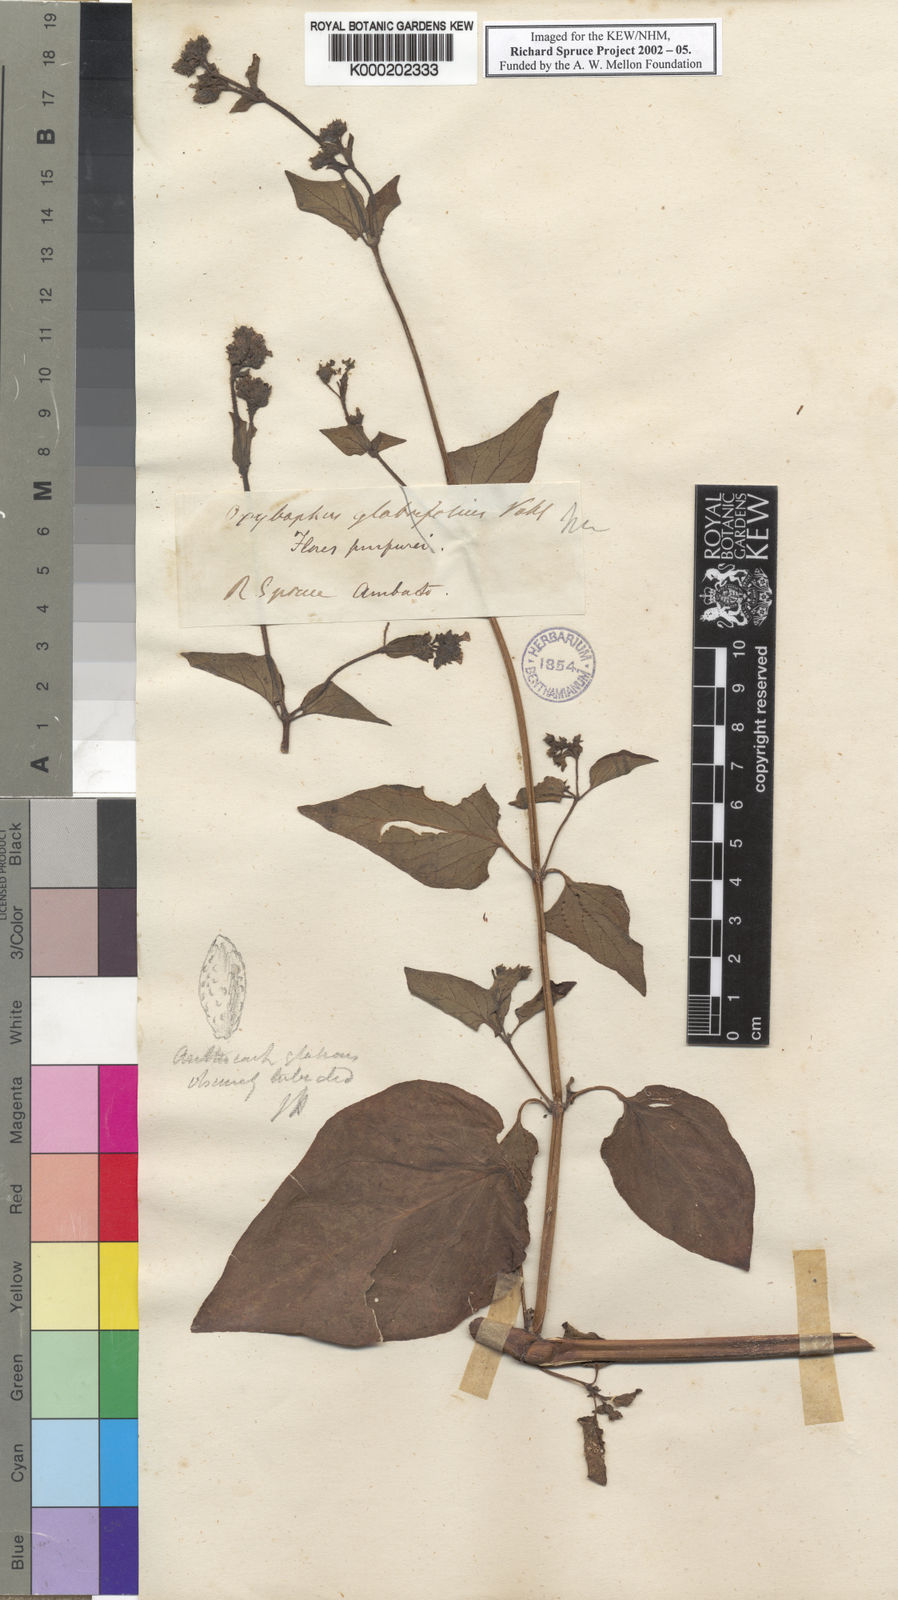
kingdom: Plantae
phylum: Tracheophyta
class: Magnoliopsida
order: Caryophyllales
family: Nyctaginaceae
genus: Mirabilis
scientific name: Mirabilis
